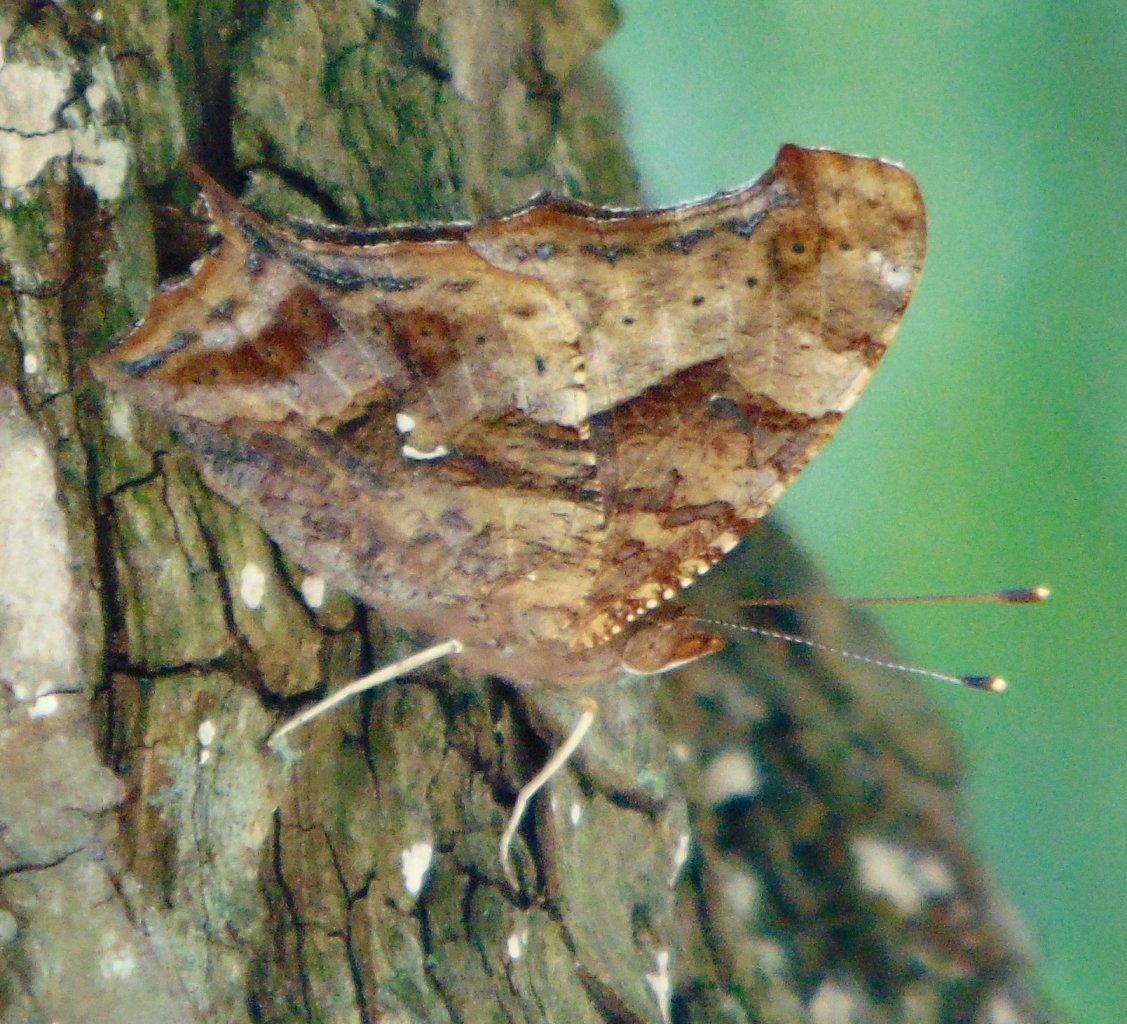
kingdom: Animalia
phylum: Arthropoda
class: Insecta
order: Lepidoptera
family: Nymphalidae
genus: Polygonia
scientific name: Polygonia interrogationis
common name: Question Mark
